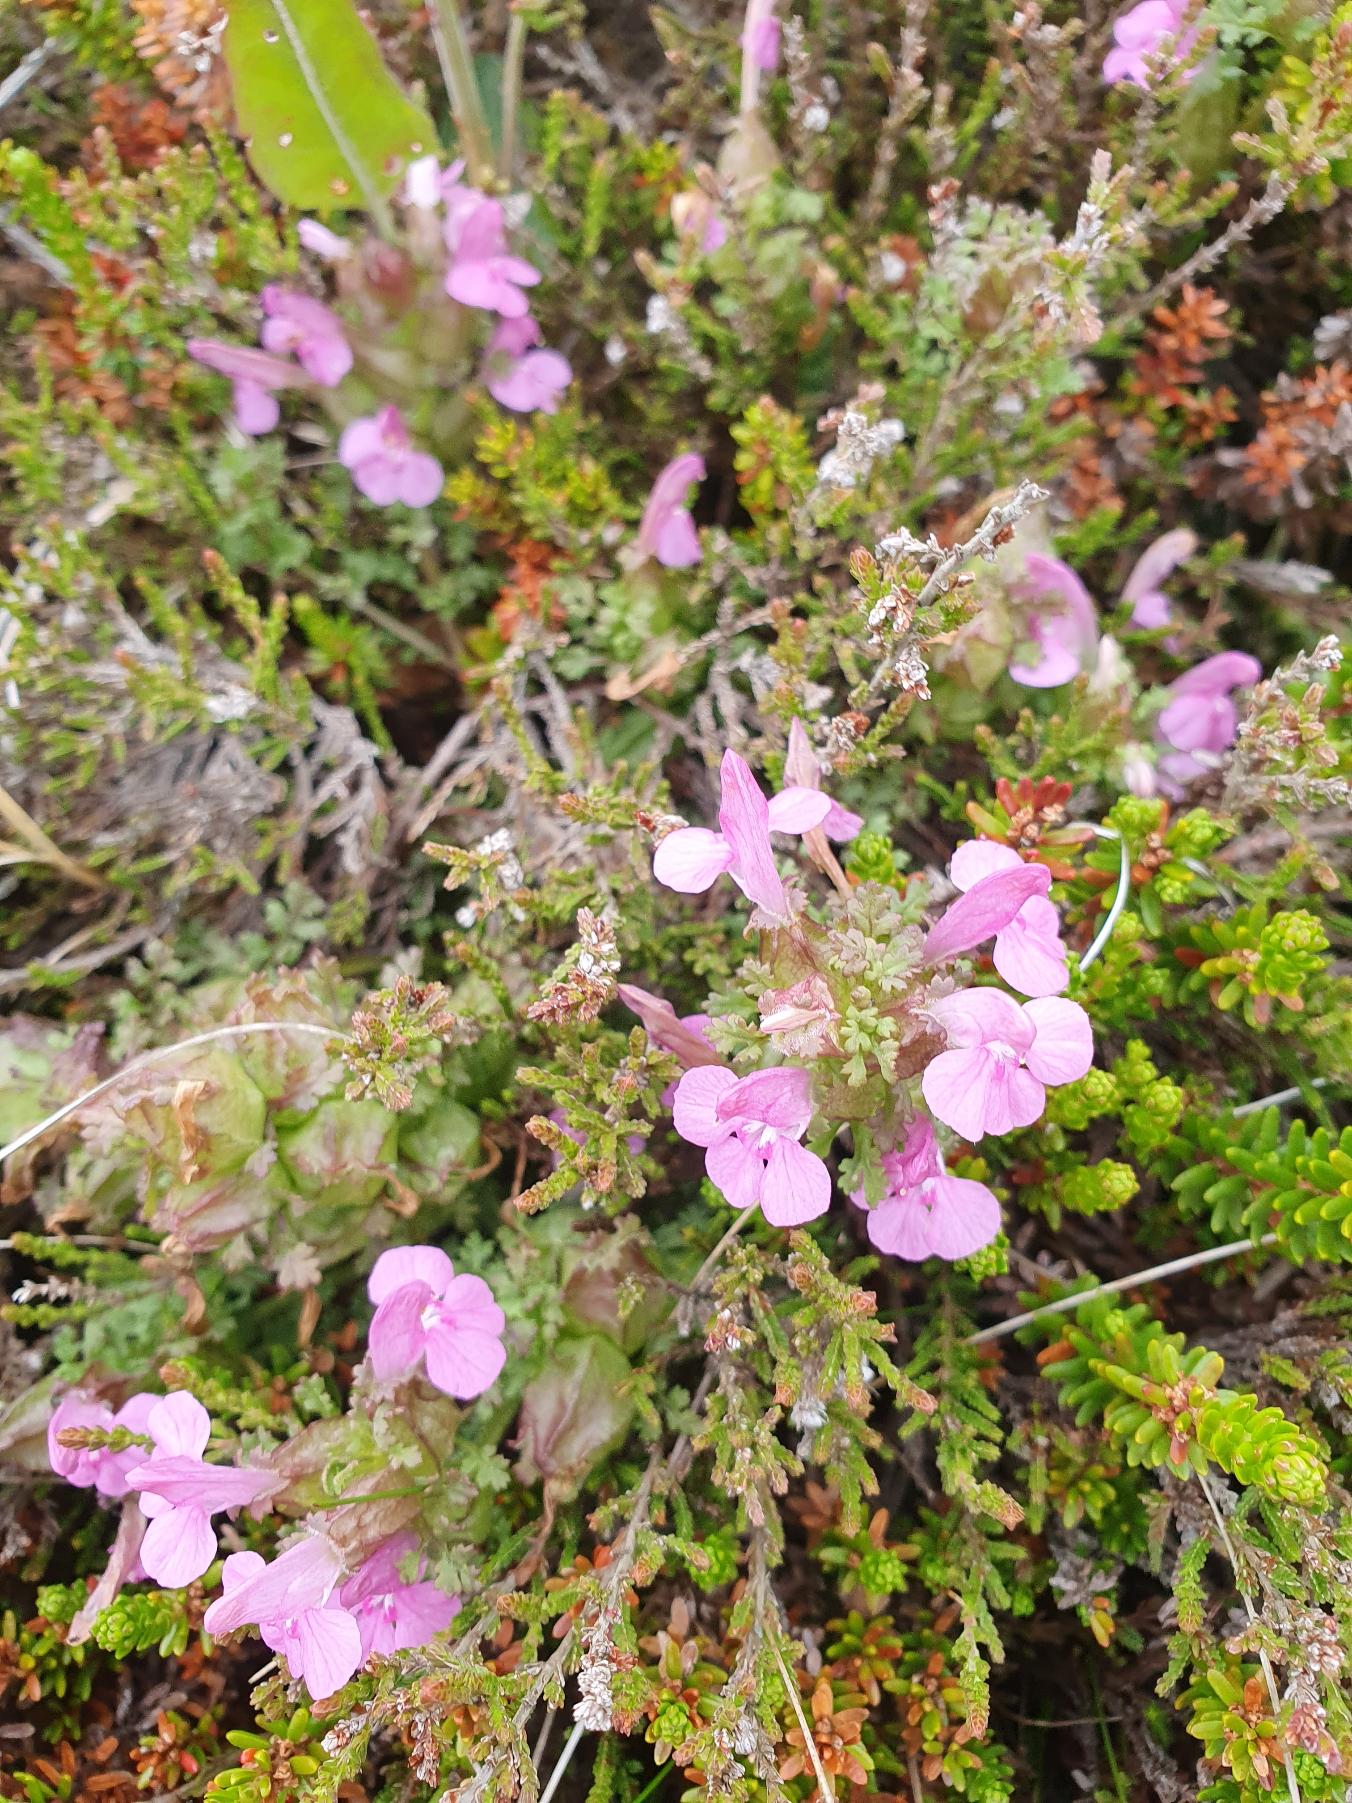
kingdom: Plantae
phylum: Tracheophyta
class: Magnoliopsida
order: Lamiales
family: Orobanchaceae
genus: Pedicularis
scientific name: Pedicularis palustris
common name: Eng-troldurt
